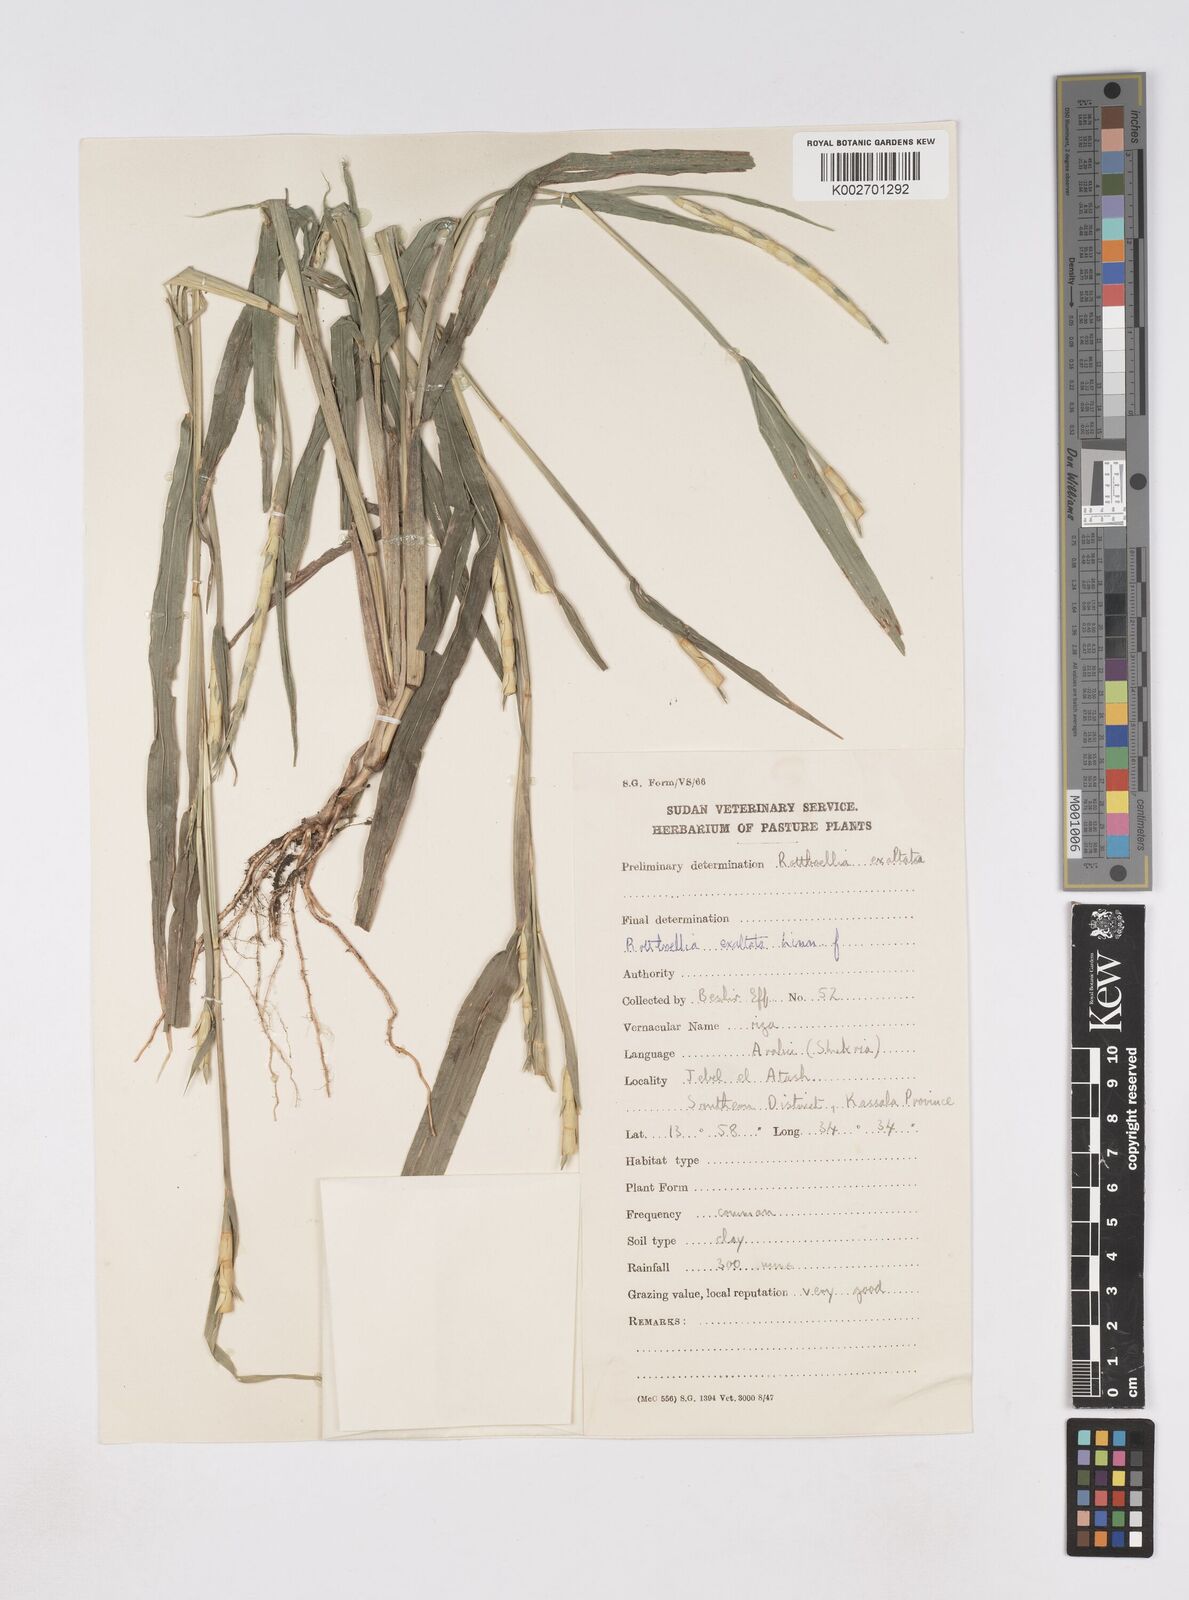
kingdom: Plantae
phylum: Tracheophyta
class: Liliopsida
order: Poales
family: Poaceae
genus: Rottboellia
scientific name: Rottboellia cochinchinensis
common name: Itchgrass
